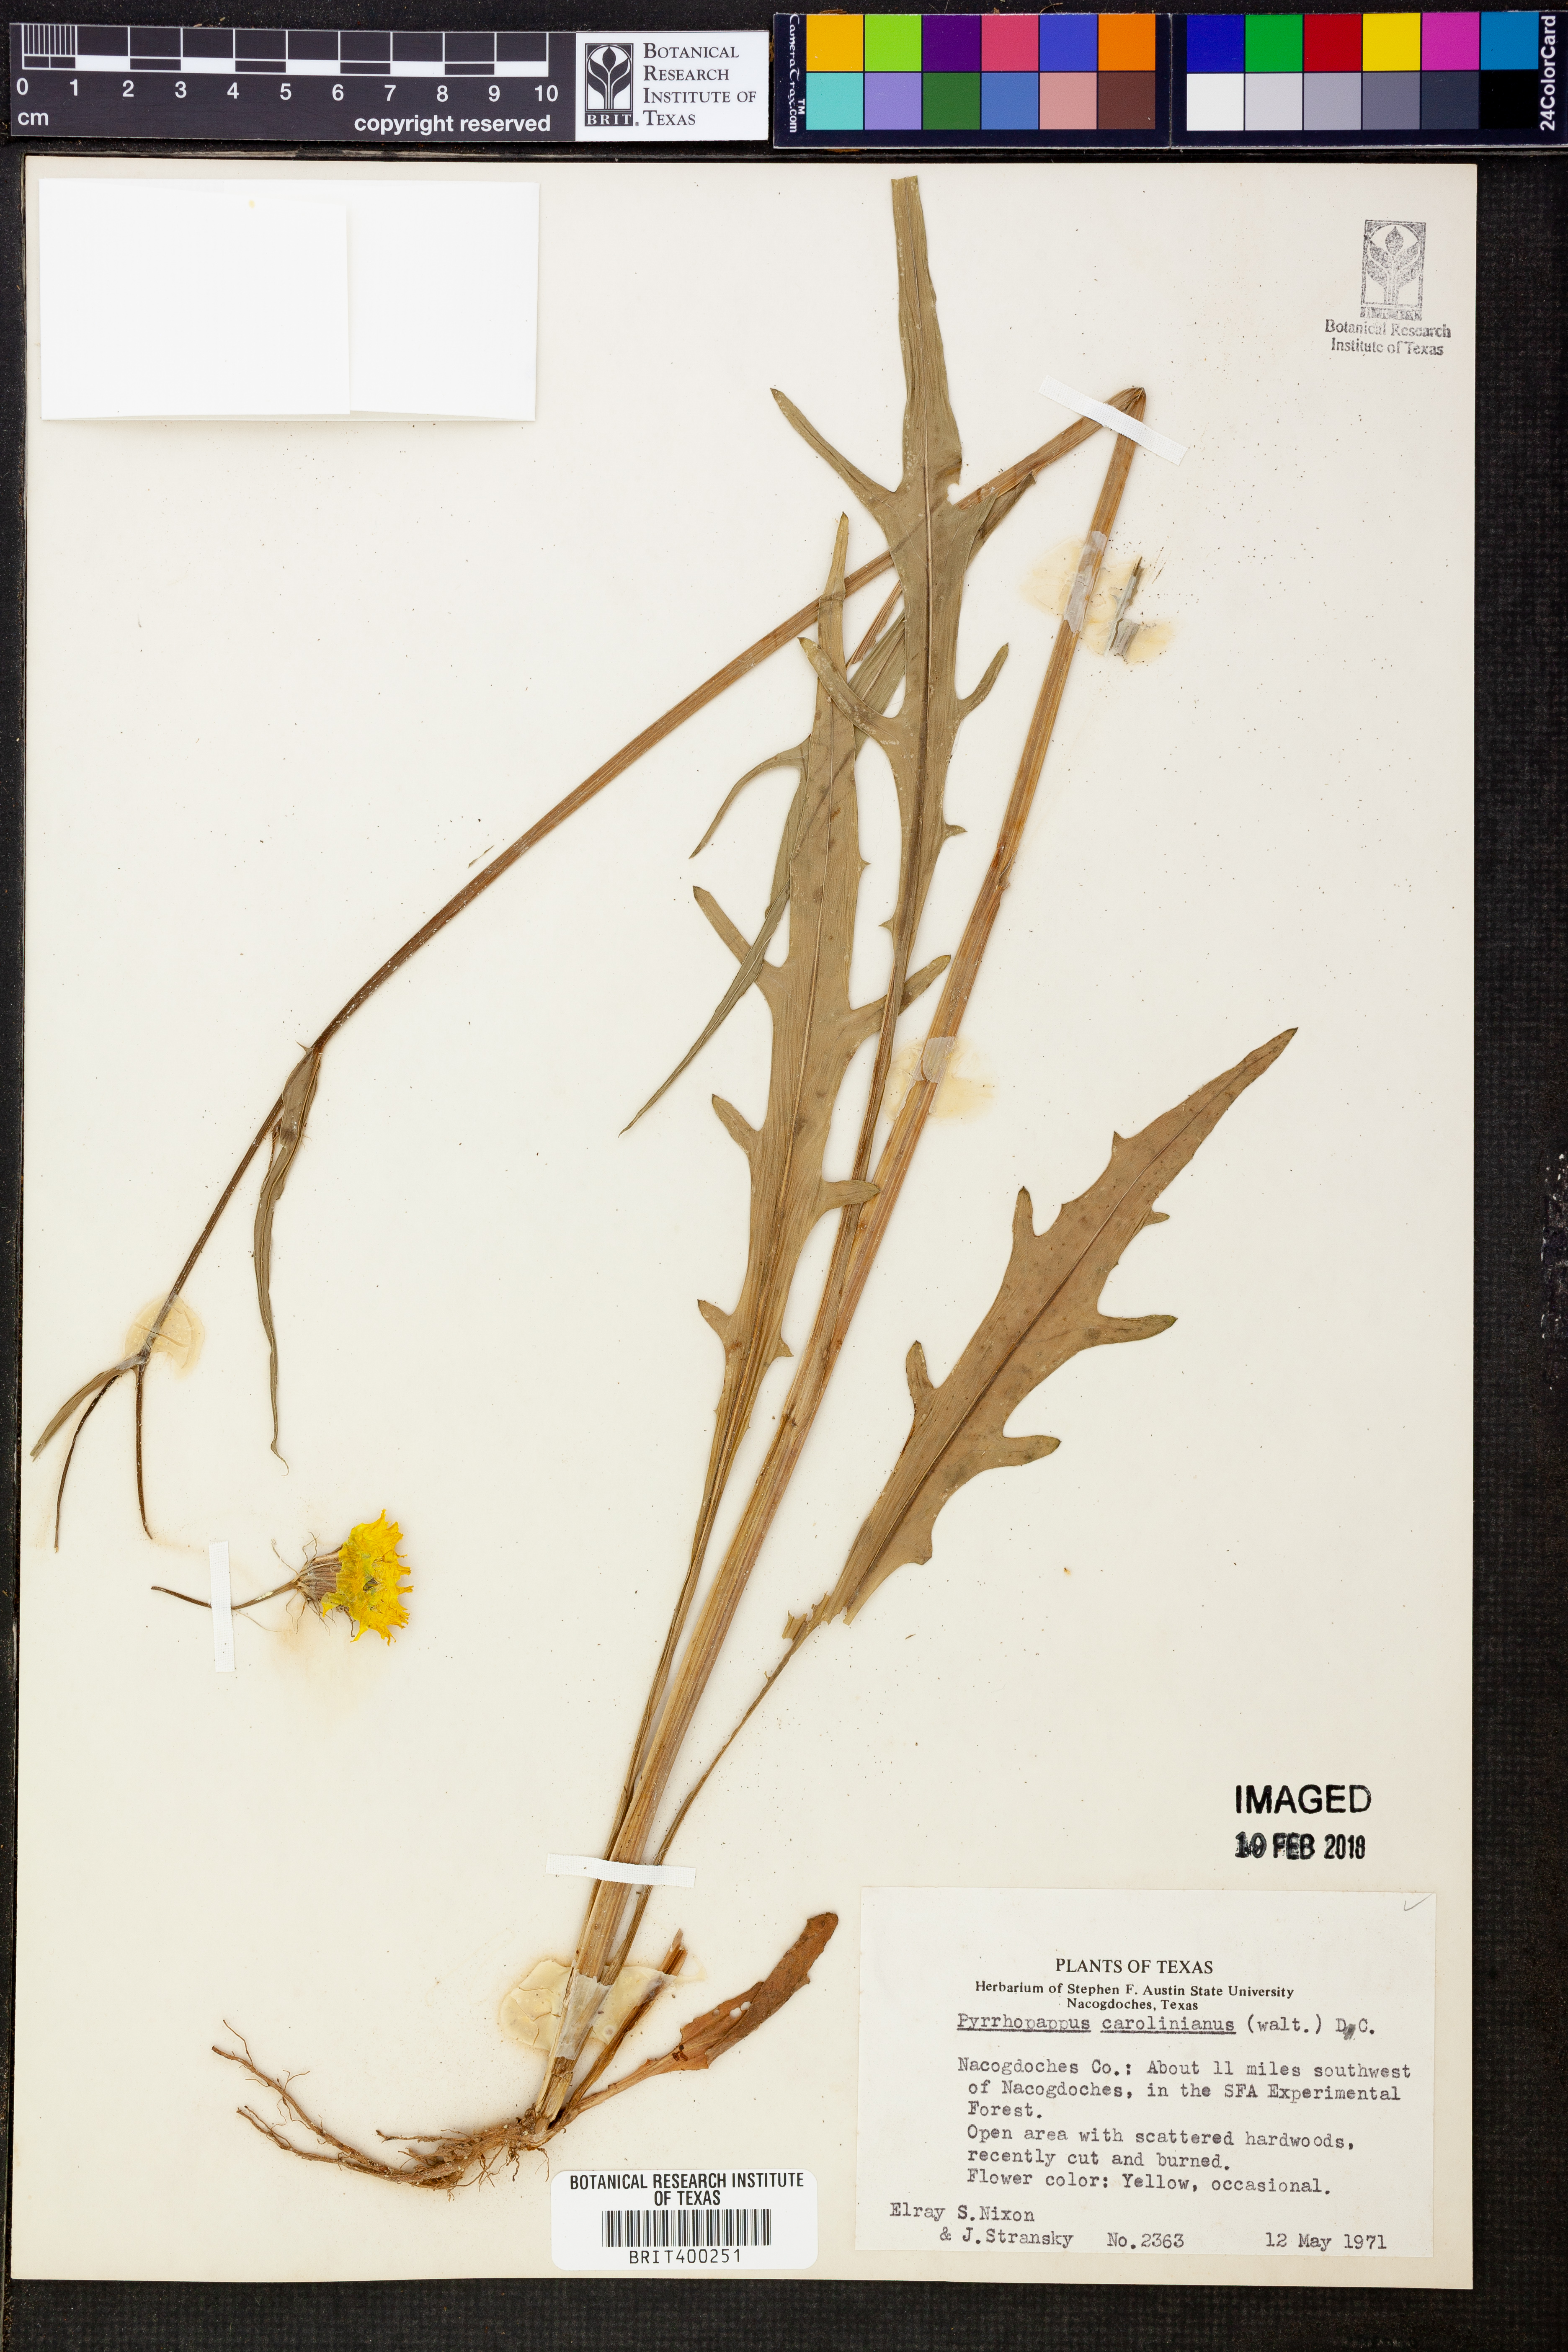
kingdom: Plantae
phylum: Tracheophyta
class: Magnoliopsida
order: Asterales
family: Asteraceae
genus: Pyrrhopappus
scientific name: Pyrrhopappus carolinianus
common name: Carolina desert-chicory
